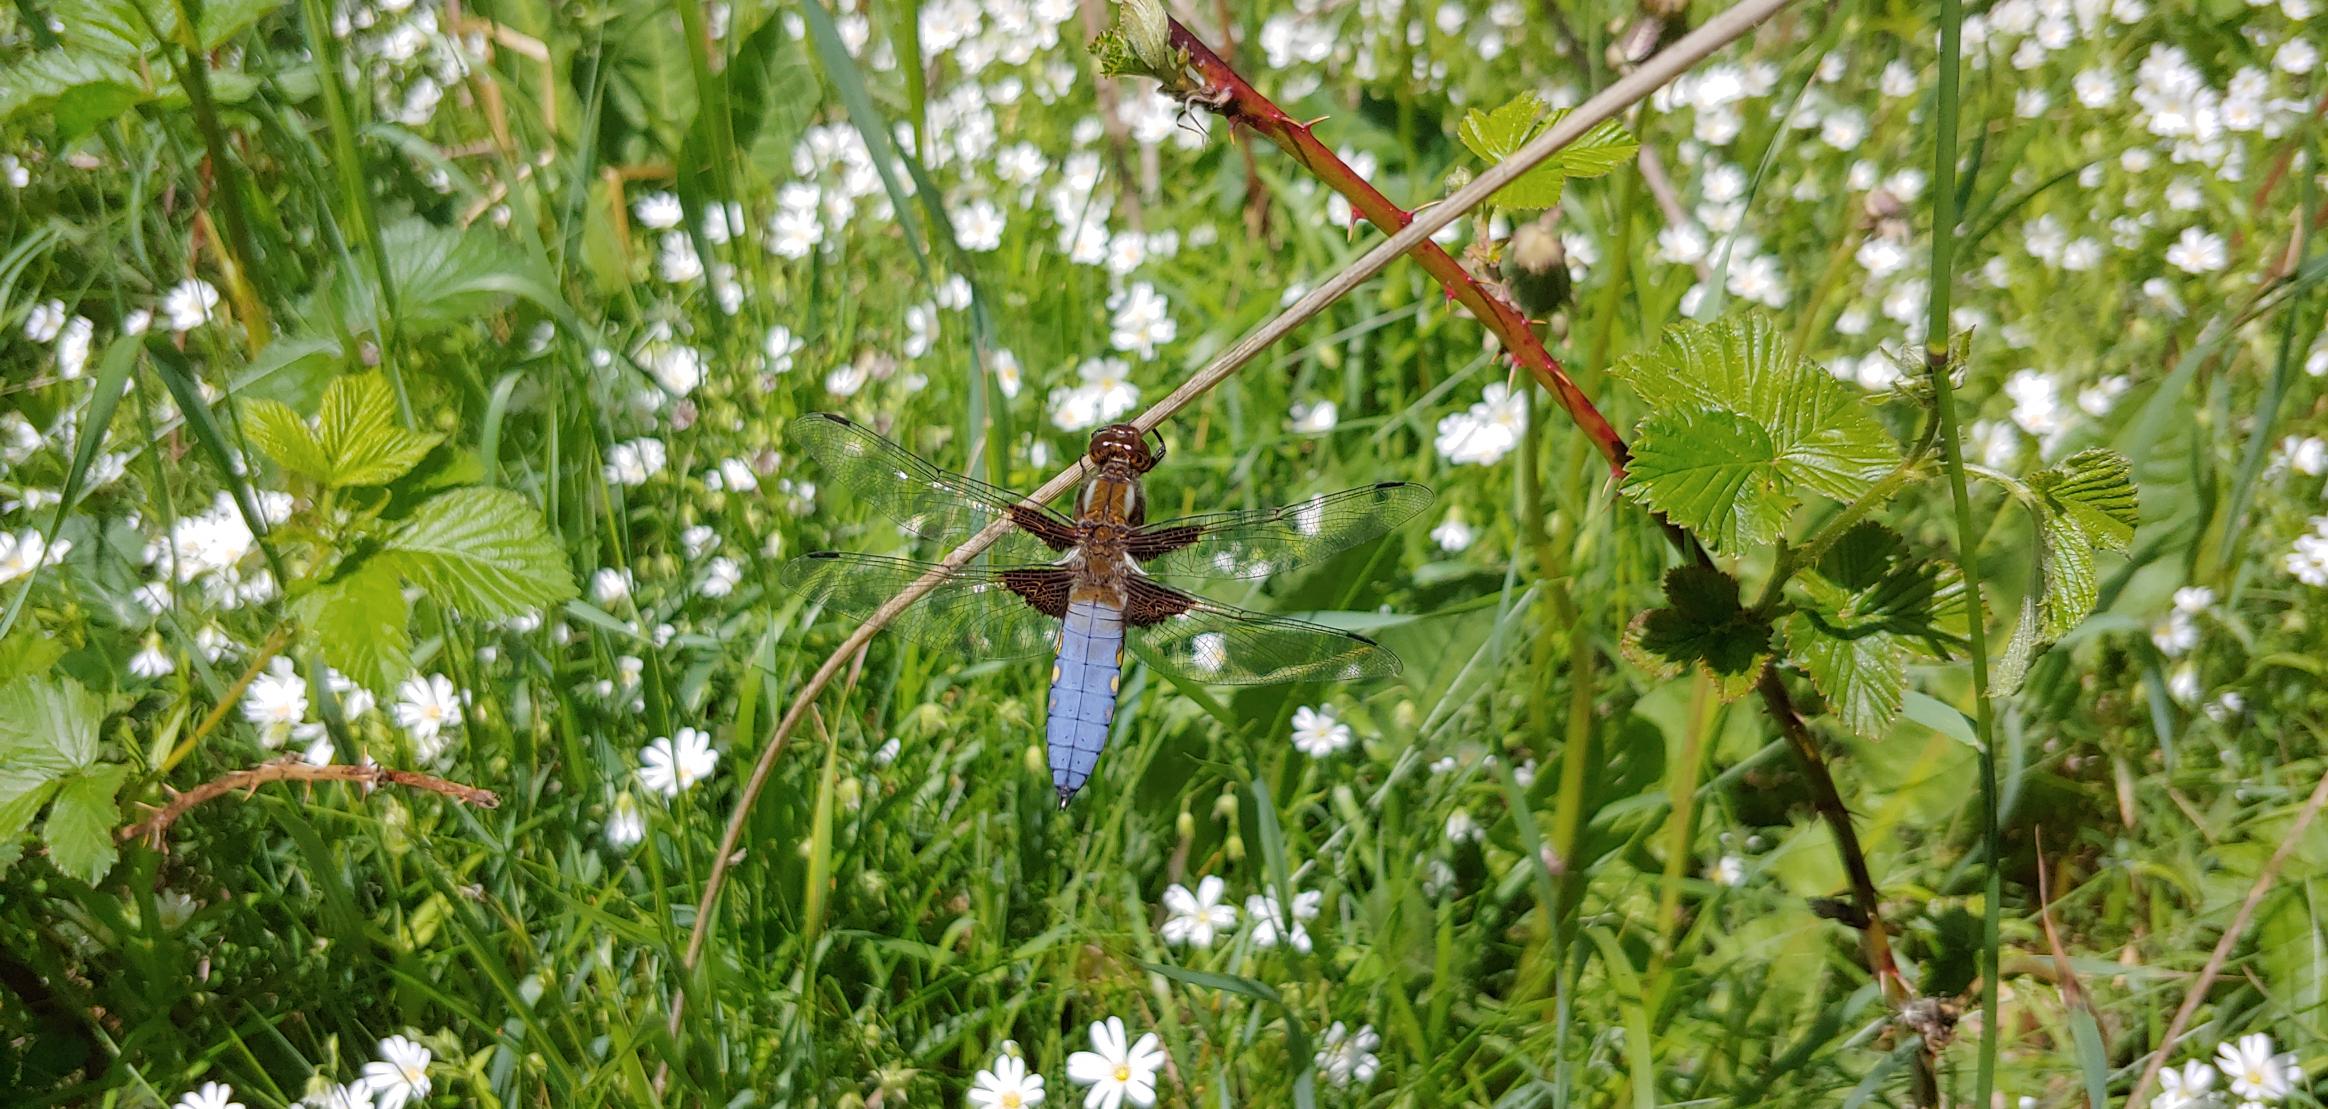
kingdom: Animalia
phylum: Arthropoda
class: Insecta
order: Odonata
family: Libellulidae
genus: Libellula
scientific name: Libellula depressa
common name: Blå libel
